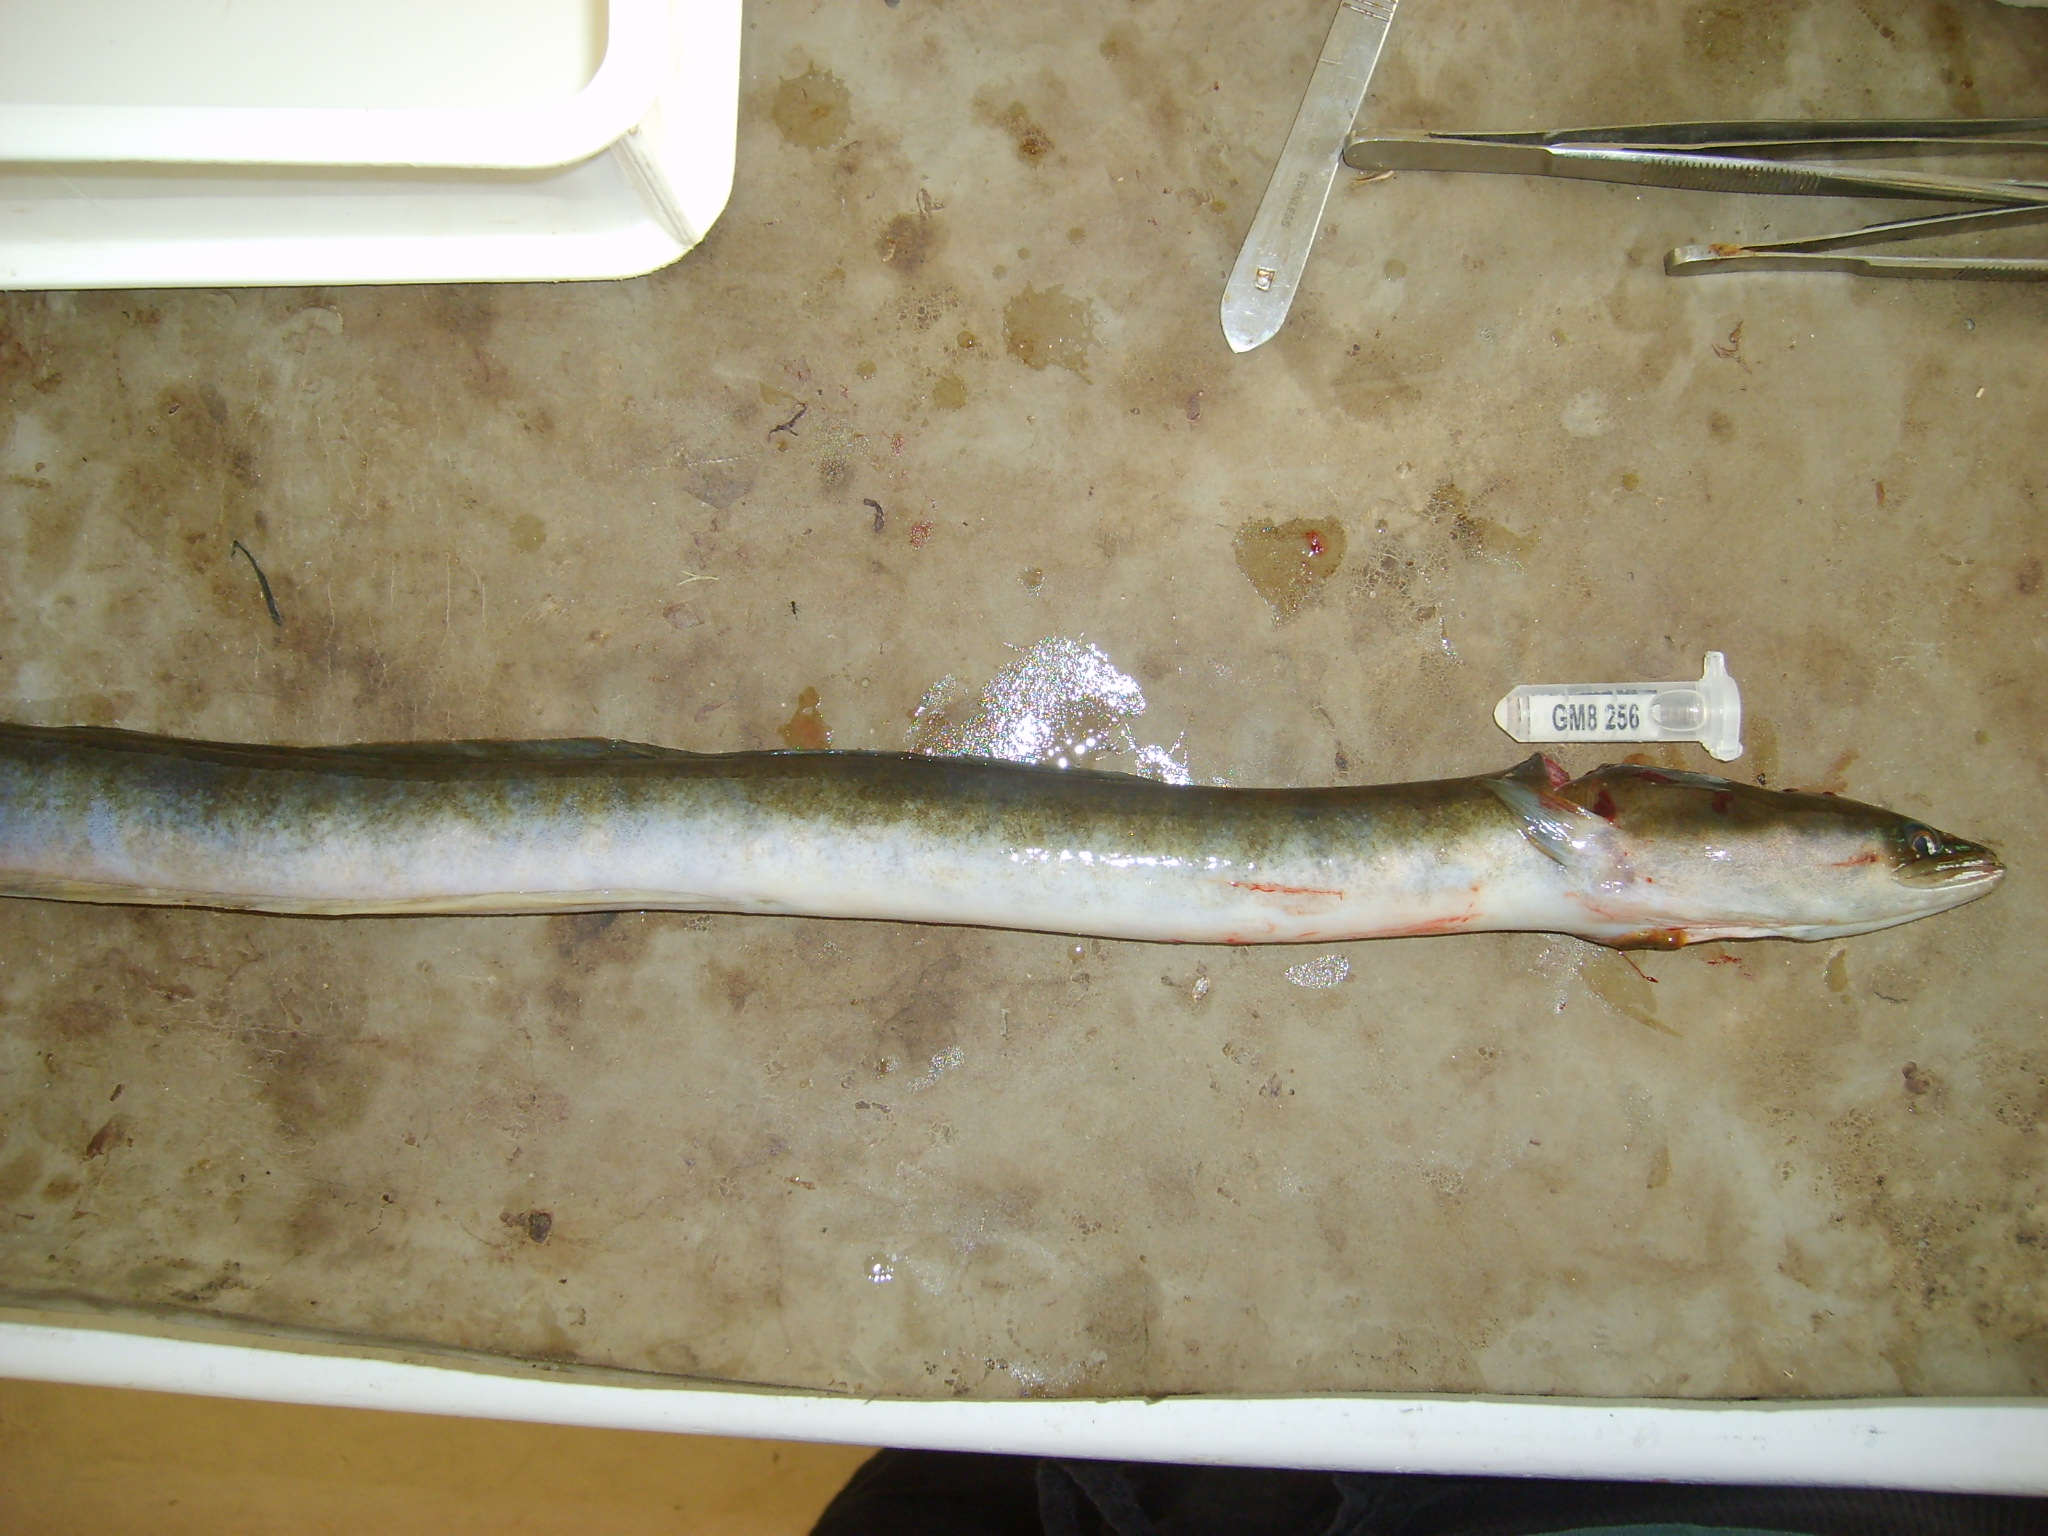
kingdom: Animalia
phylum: Chordata
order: Anguilliformes
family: Anguillidae
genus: Anguilla
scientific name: Anguilla mossambica
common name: African longfin eel
